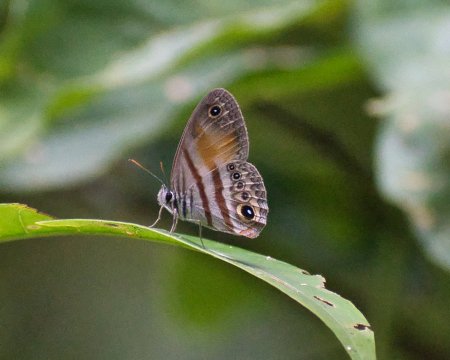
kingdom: Animalia
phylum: Arthropoda
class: Insecta
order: Lepidoptera
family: Nymphalidae
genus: Euptychia
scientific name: Euptychia pyracmon
